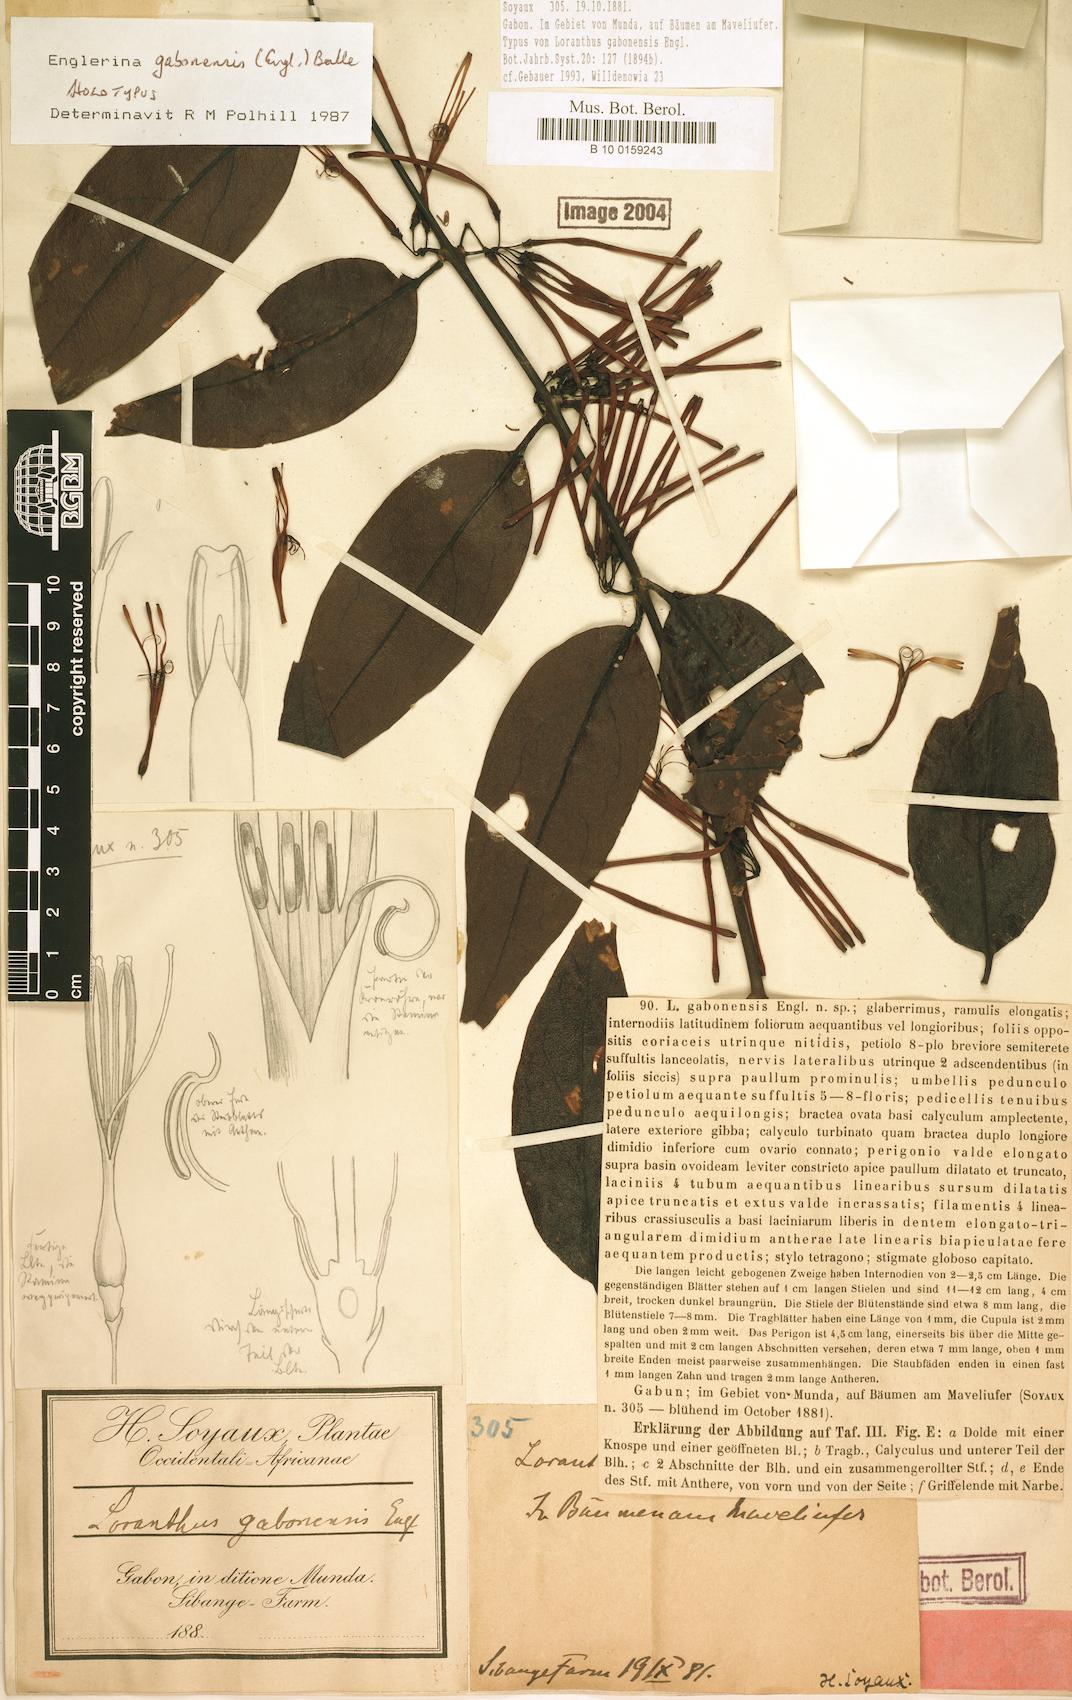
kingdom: Plantae
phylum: Tracheophyta
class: Magnoliopsida
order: Santalales
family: Loranthaceae
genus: Englerina
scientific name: Englerina gabonensis
